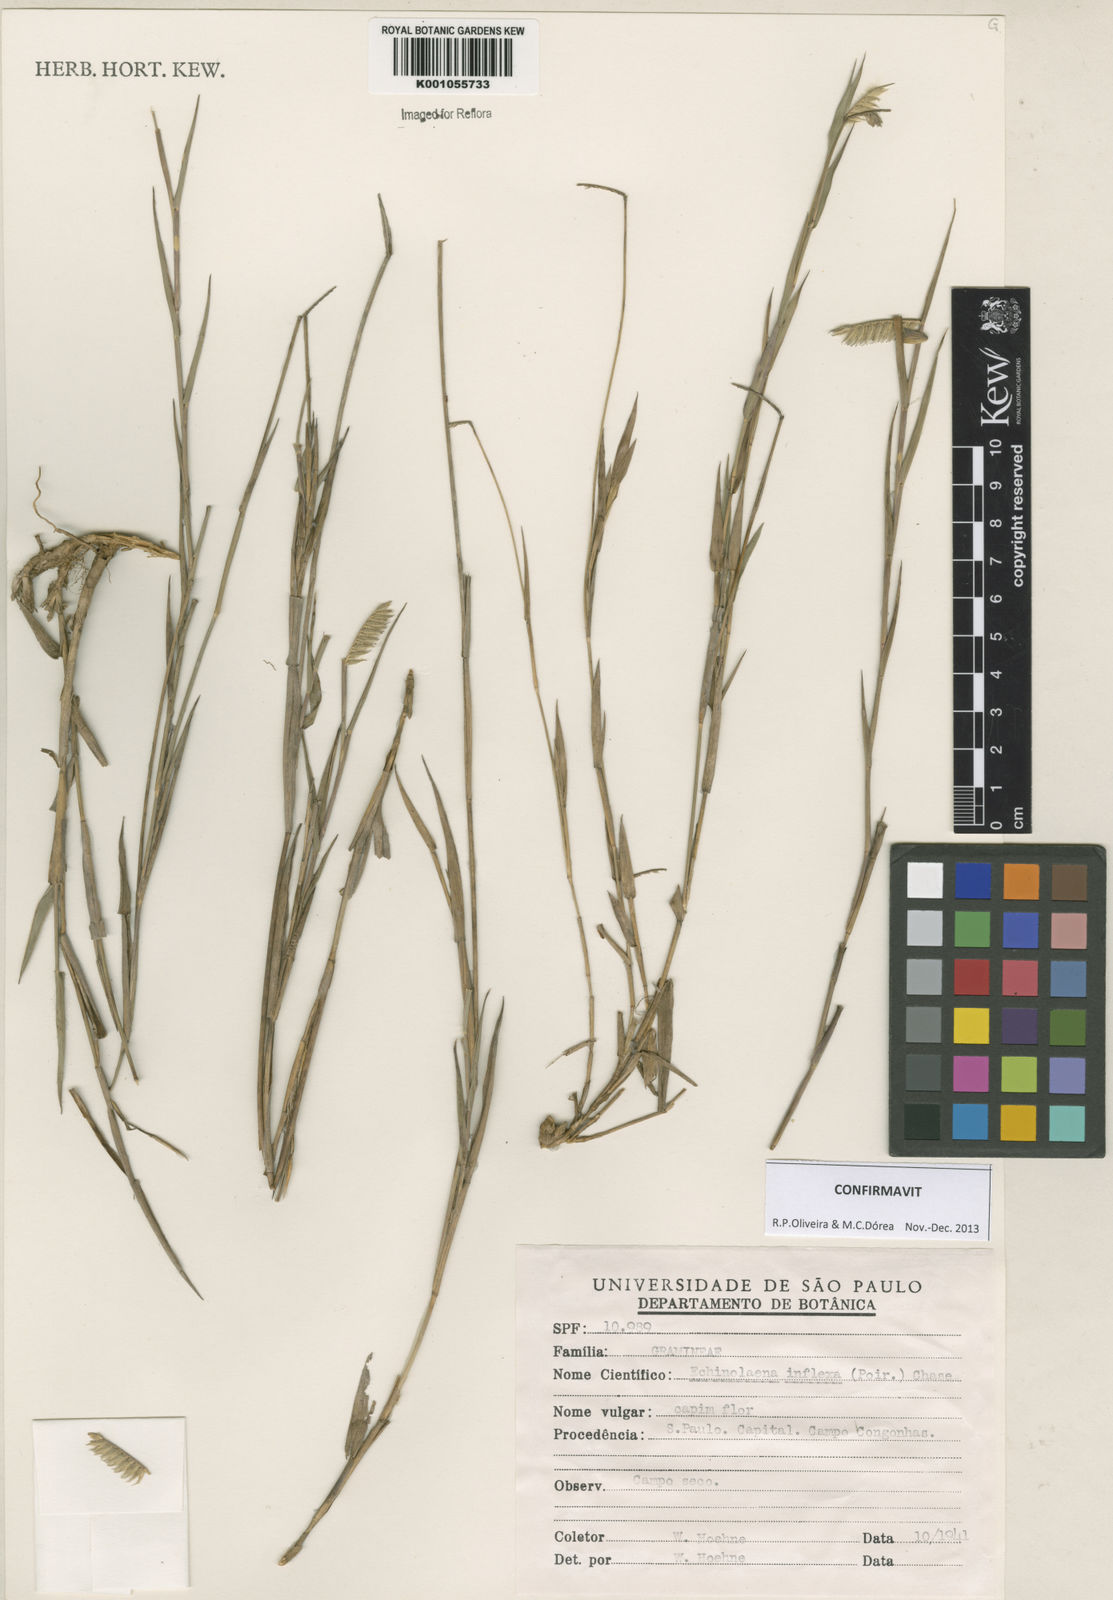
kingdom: Plantae
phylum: Tracheophyta
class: Liliopsida
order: Poales
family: Poaceae
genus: Echinolaena
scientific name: Echinolaena inflexa
